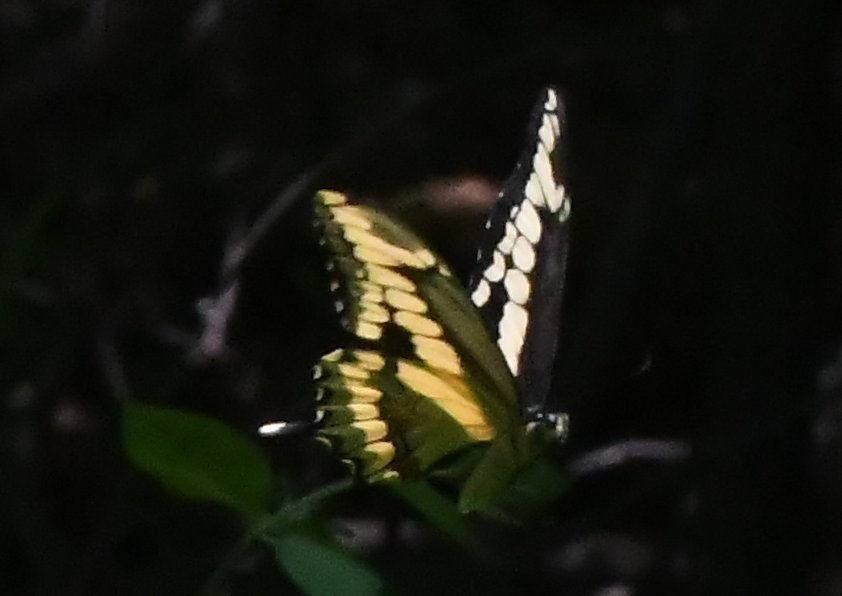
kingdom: Animalia
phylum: Arthropoda
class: Insecta
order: Lepidoptera
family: Papilionidae
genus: Papilio
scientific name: Papilio cresphontes
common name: Eastern Giant Swallowtail
